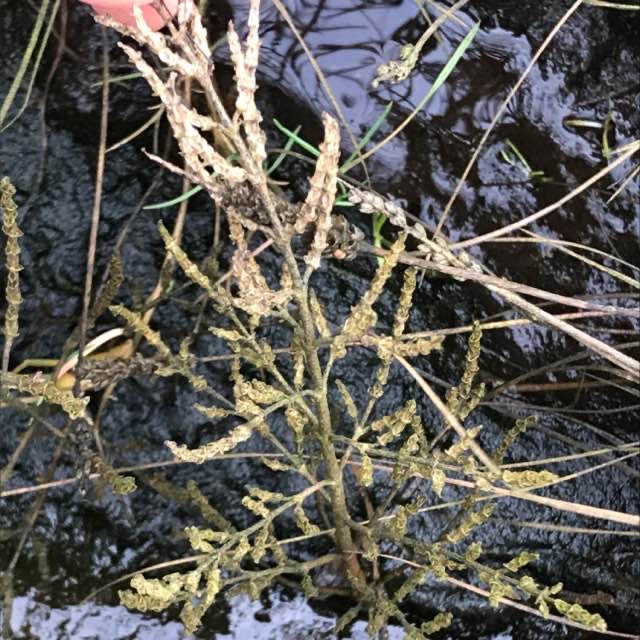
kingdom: Plantae
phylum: Tracheophyta
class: Magnoliopsida
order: Caryophyllales
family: Amaranthaceae
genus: Salicornia
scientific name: Salicornia europaea
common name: Almindelig salturt
